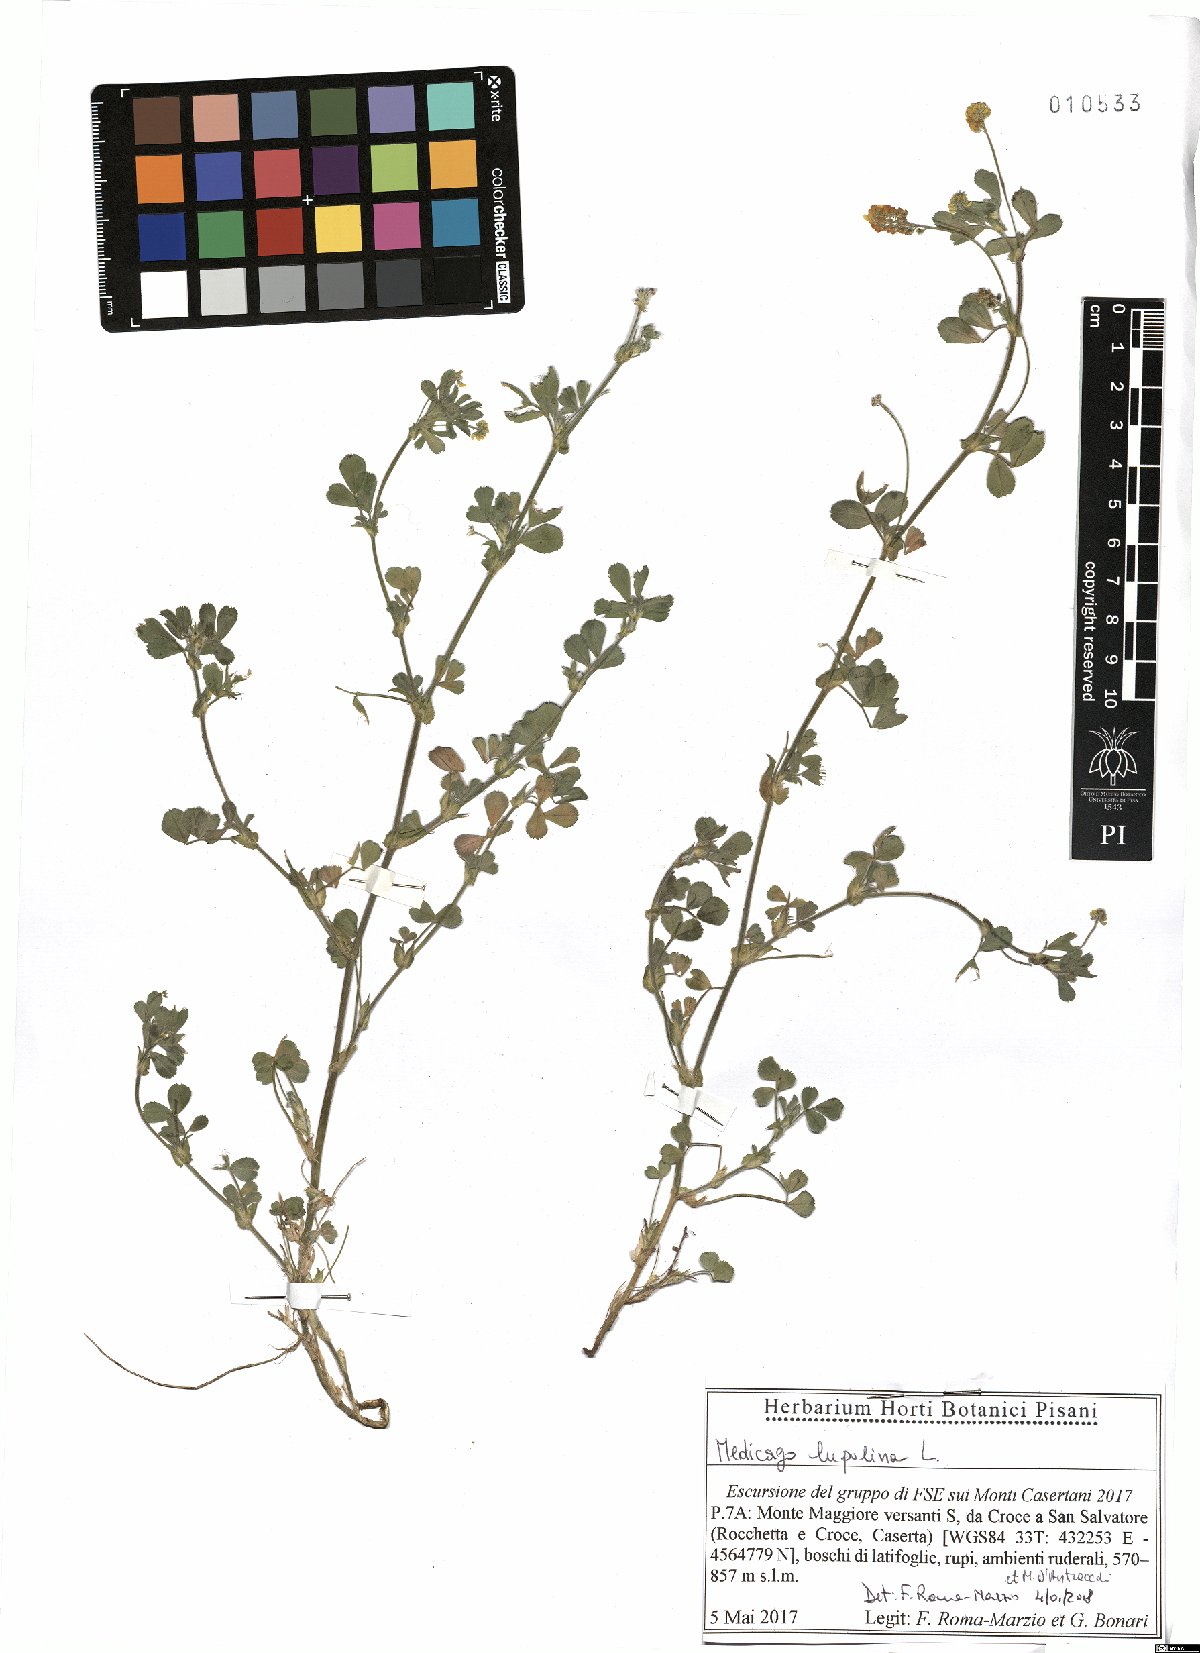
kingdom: Plantae
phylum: Tracheophyta
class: Magnoliopsida
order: Fabales
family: Fabaceae
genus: Medicago
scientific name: Medicago lupulina
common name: Black medick
